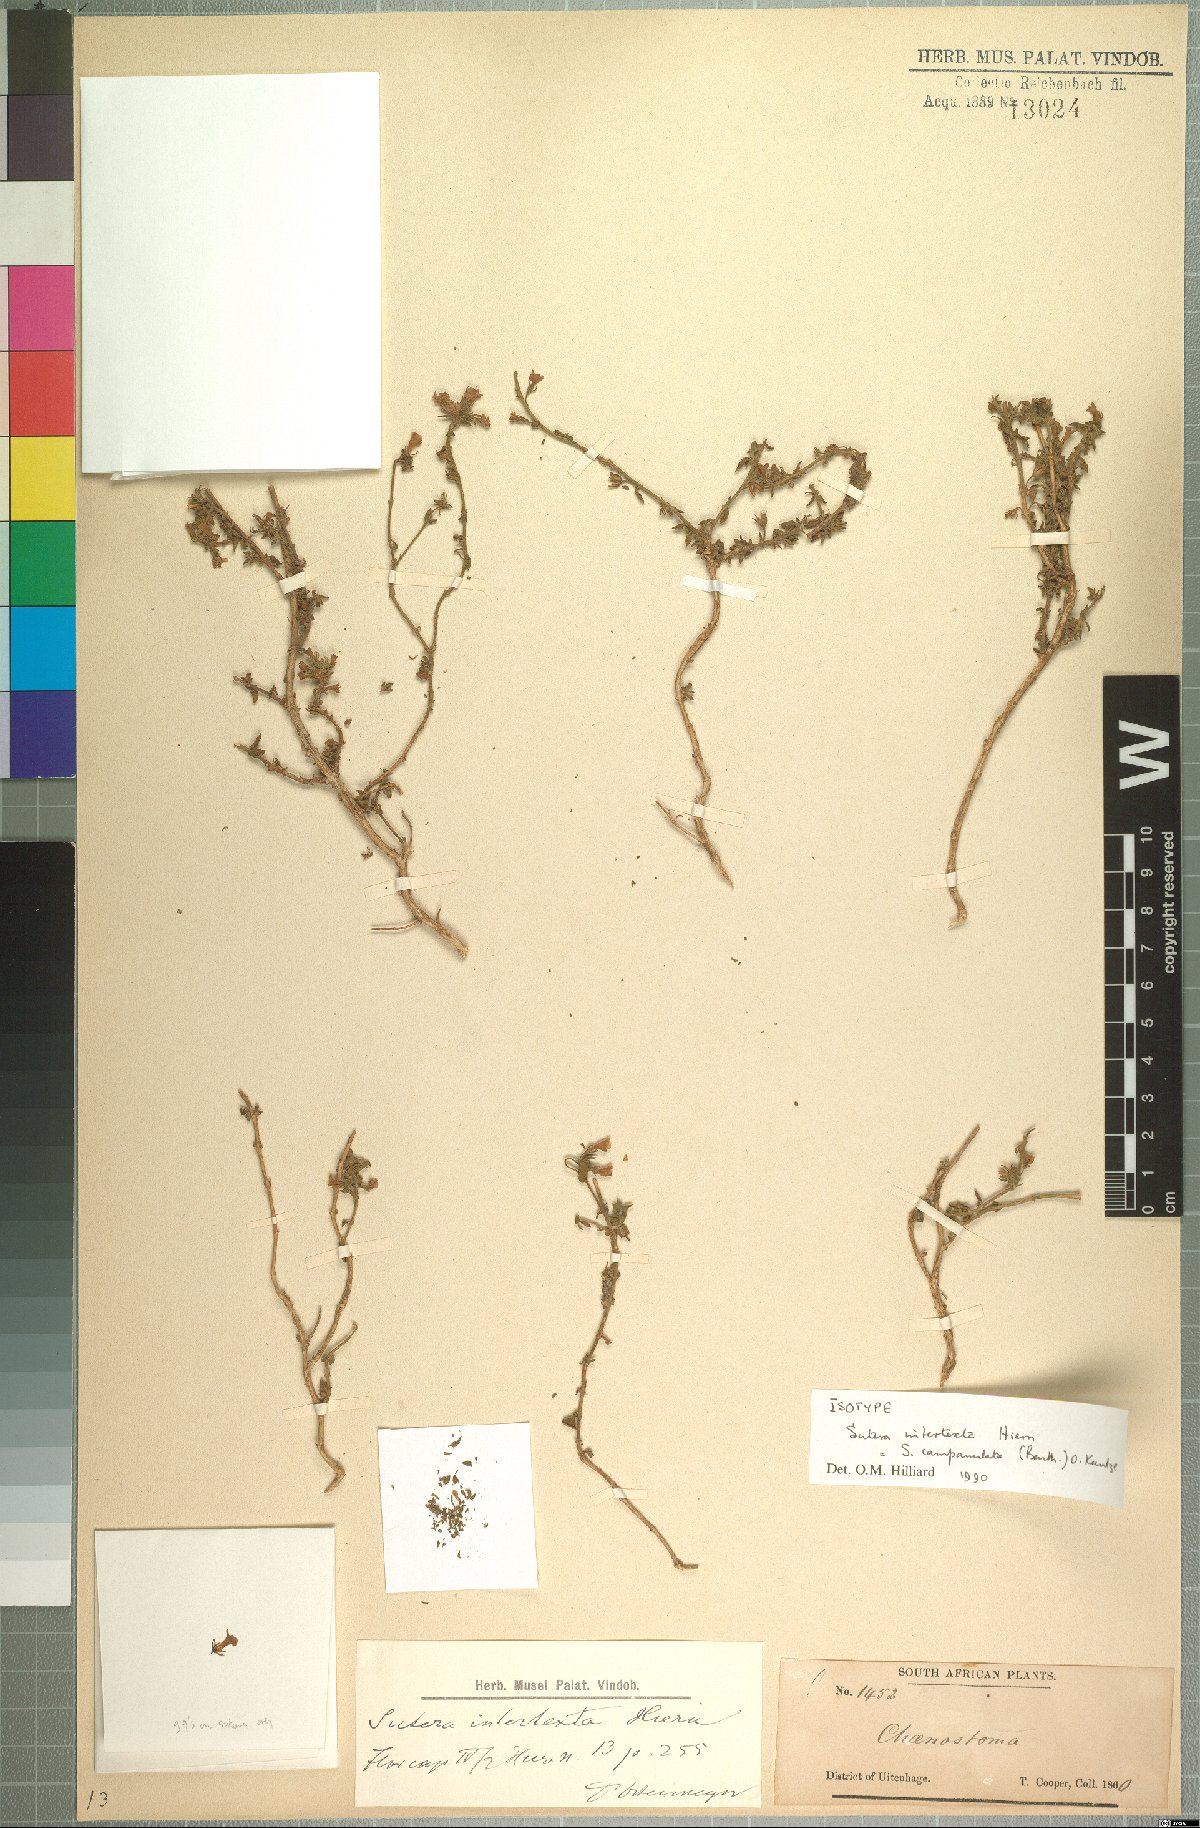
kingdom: Plantae
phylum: Tracheophyta
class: Magnoliopsida
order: Lamiales
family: Scrophulariaceae
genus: Chaenostoma
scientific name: Chaenostoma campanulatum
